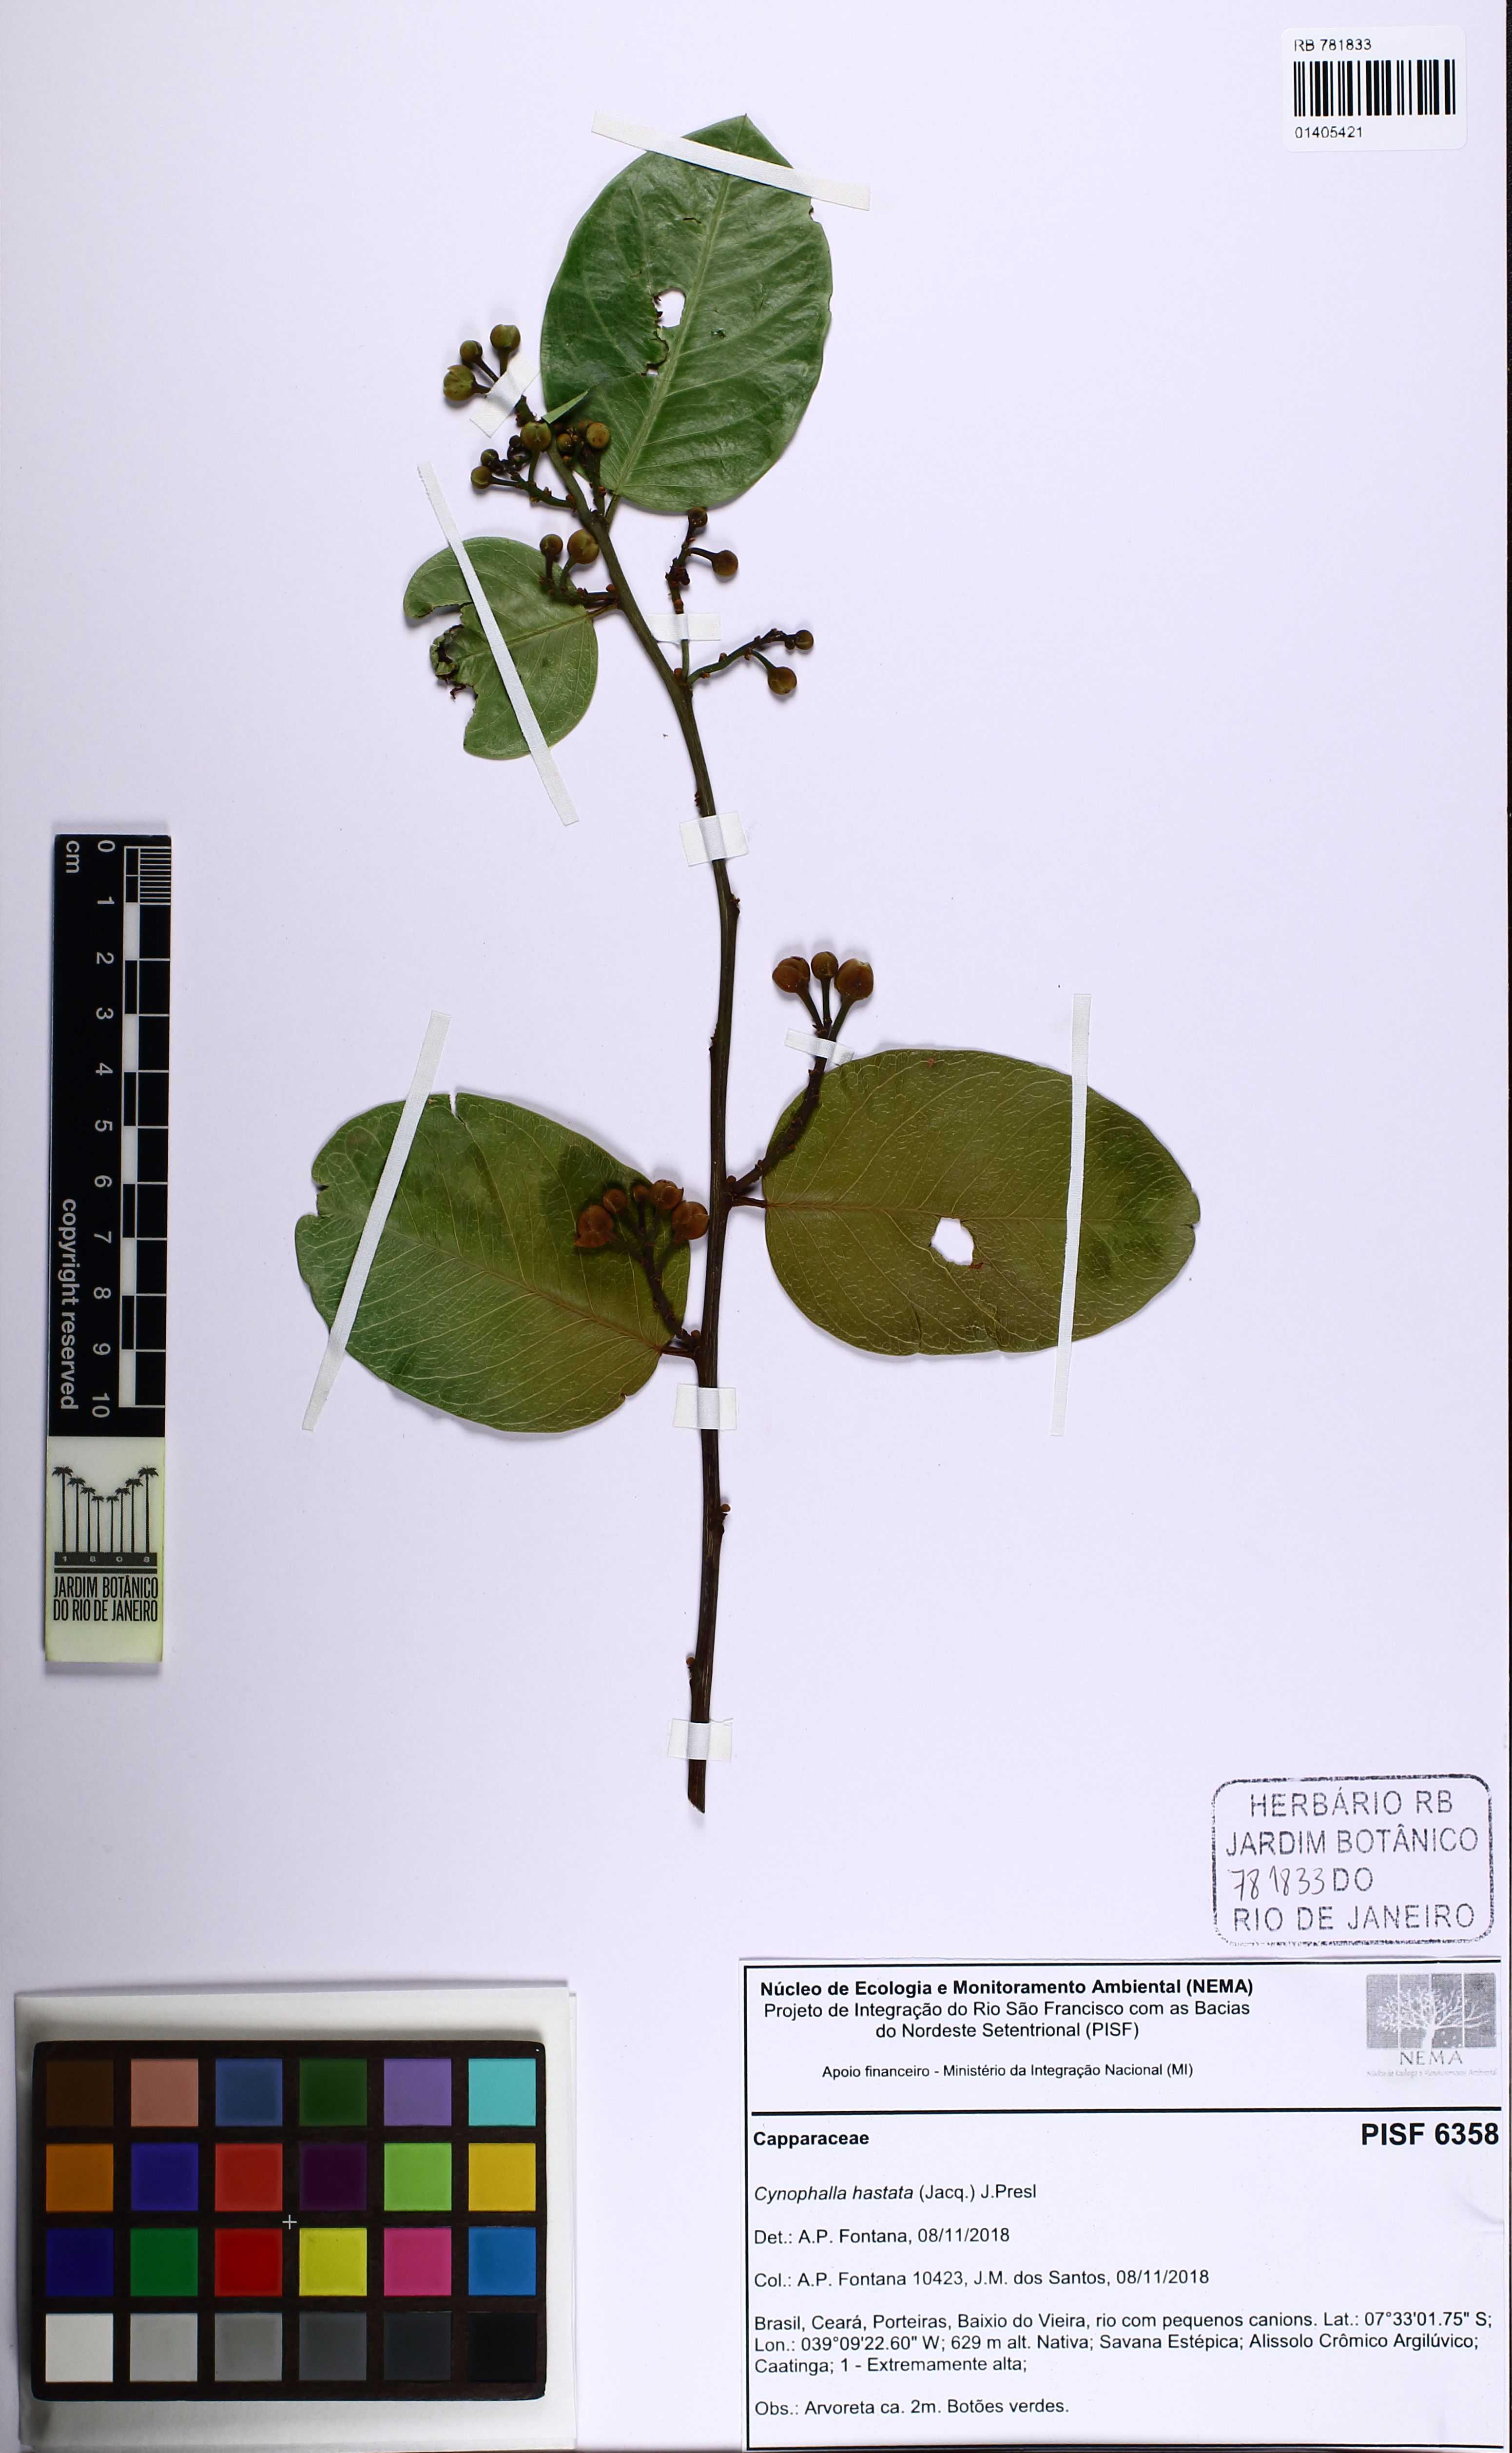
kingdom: Plantae
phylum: Tracheophyta
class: Magnoliopsida
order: Brassicales
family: Capparaceae
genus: Cynophalla
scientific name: Cynophalla hastata
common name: Broadleaf cape
